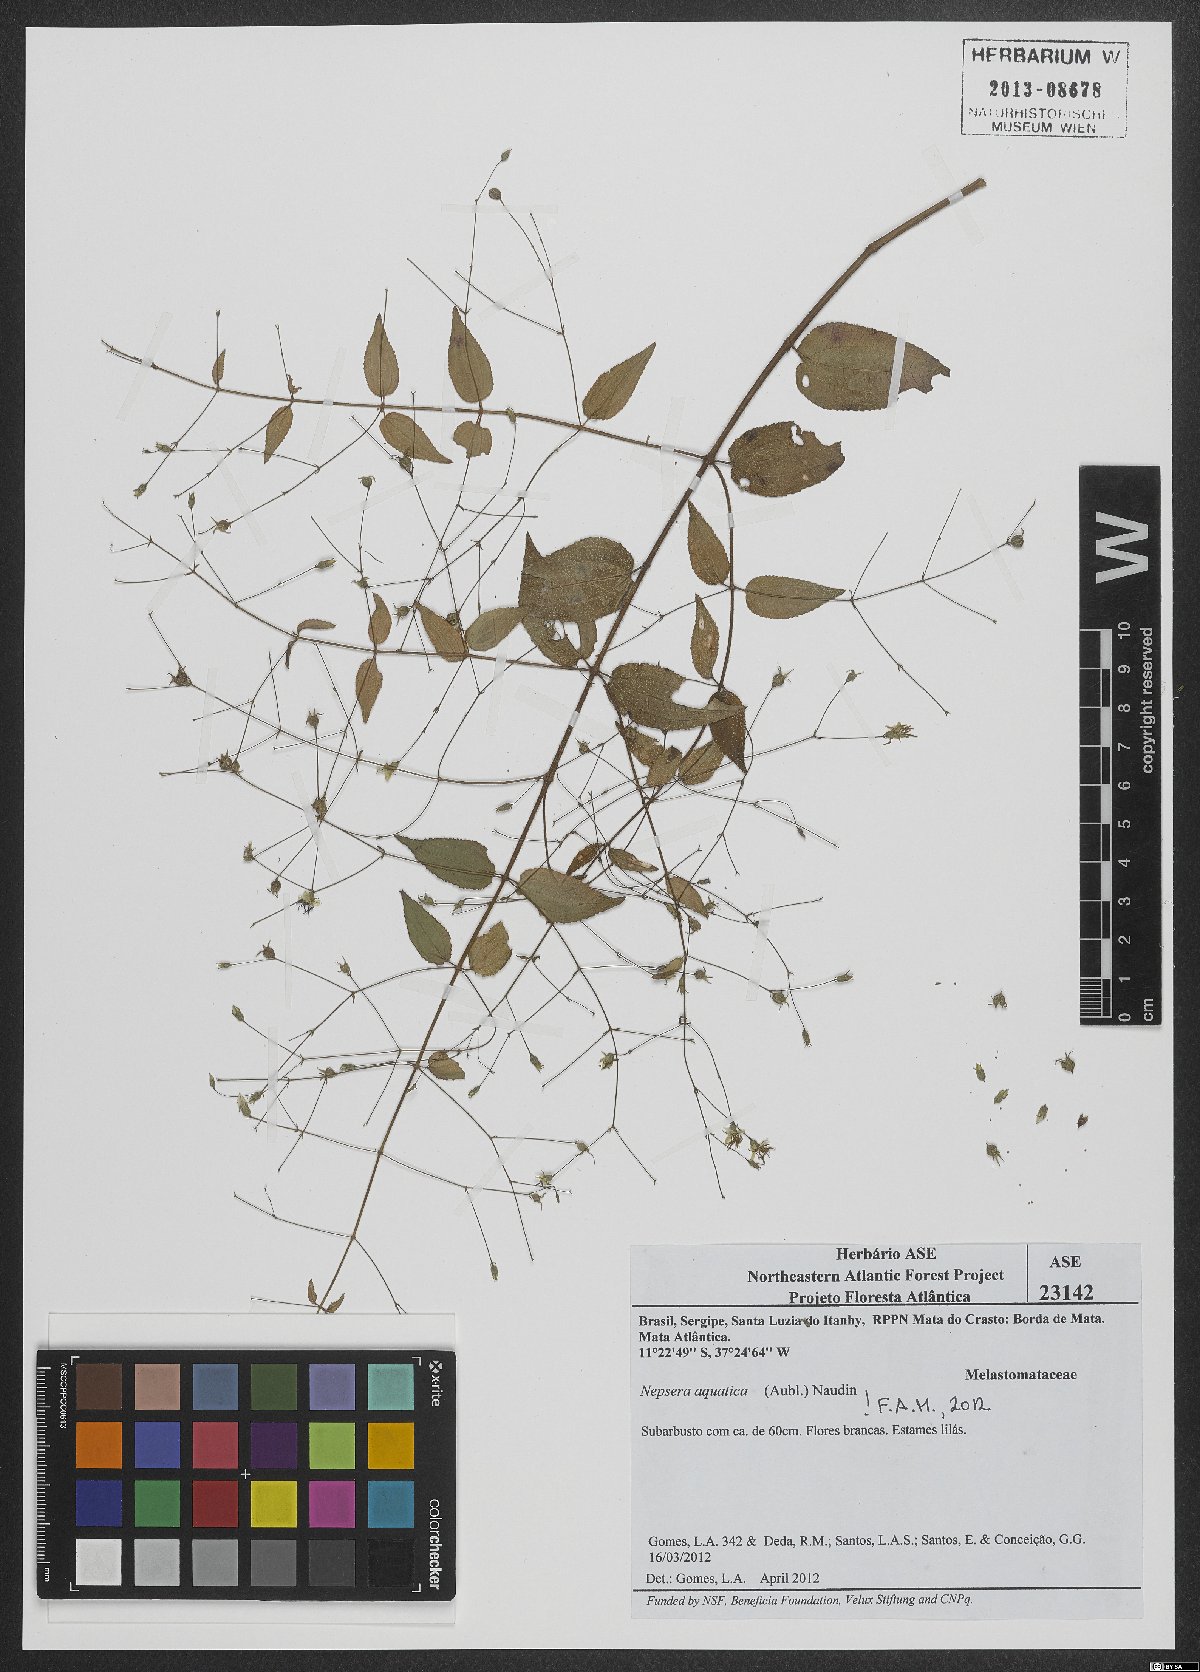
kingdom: Plantae
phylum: Tracheophyta
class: Magnoliopsida
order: Myrtales
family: Melastomataceae
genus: Nepsera
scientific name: Nepsera aquatica
